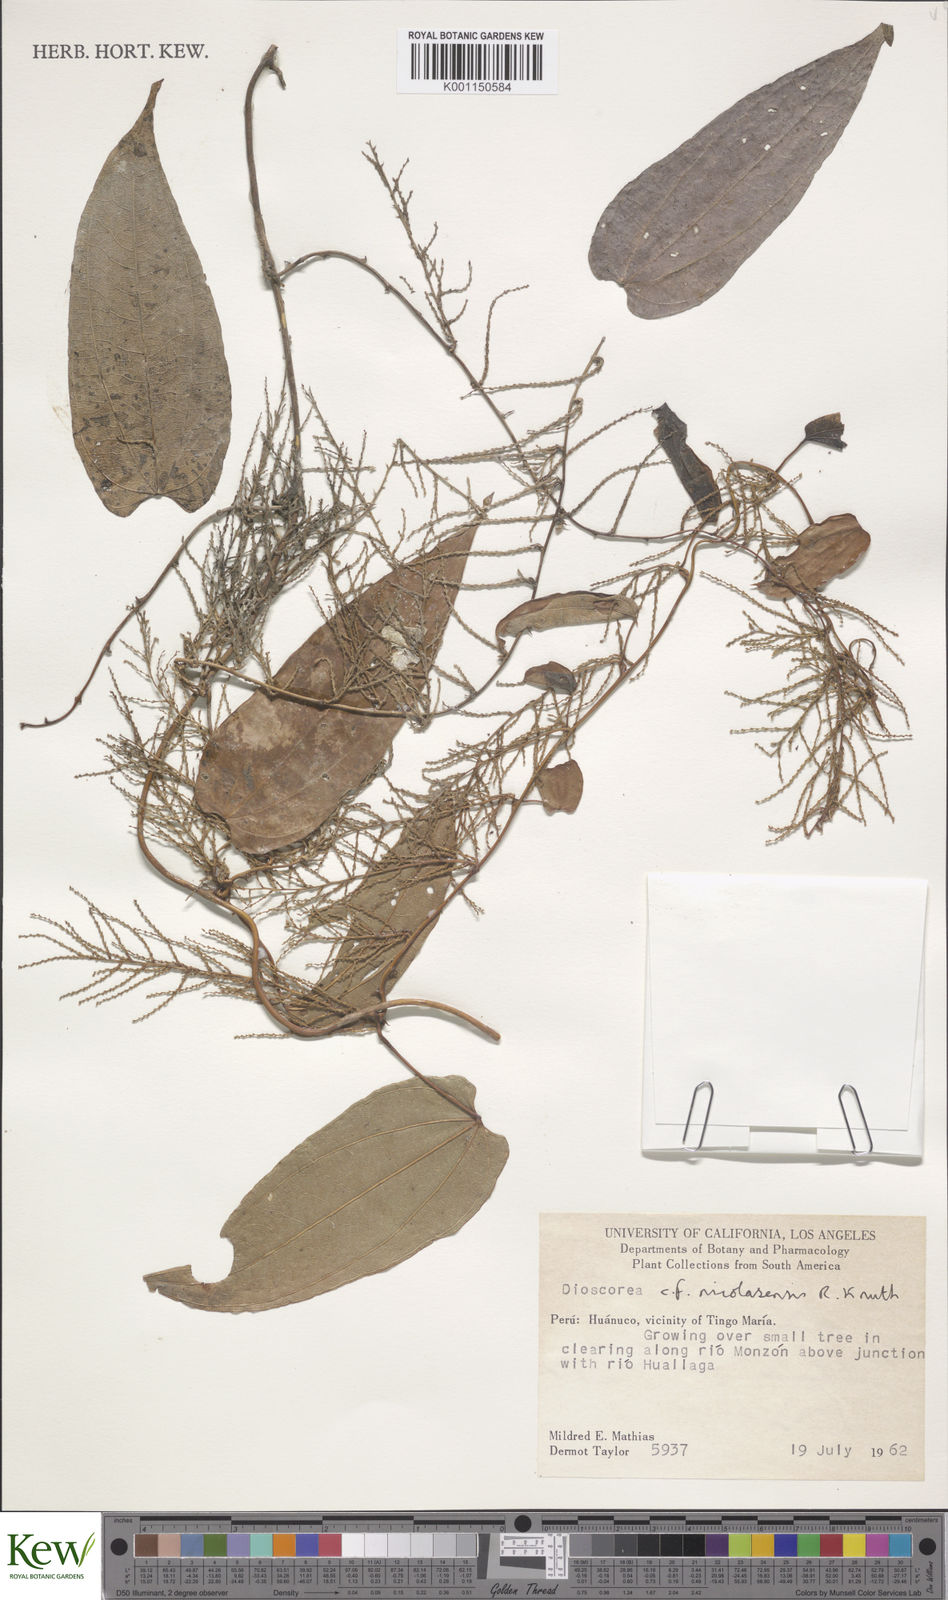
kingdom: Plantae
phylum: Tracheophyta
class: Liliopsida
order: Dioscoreales
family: Dioscoreaceae
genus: Dioscorea
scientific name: Dioscorea nicolasensis
